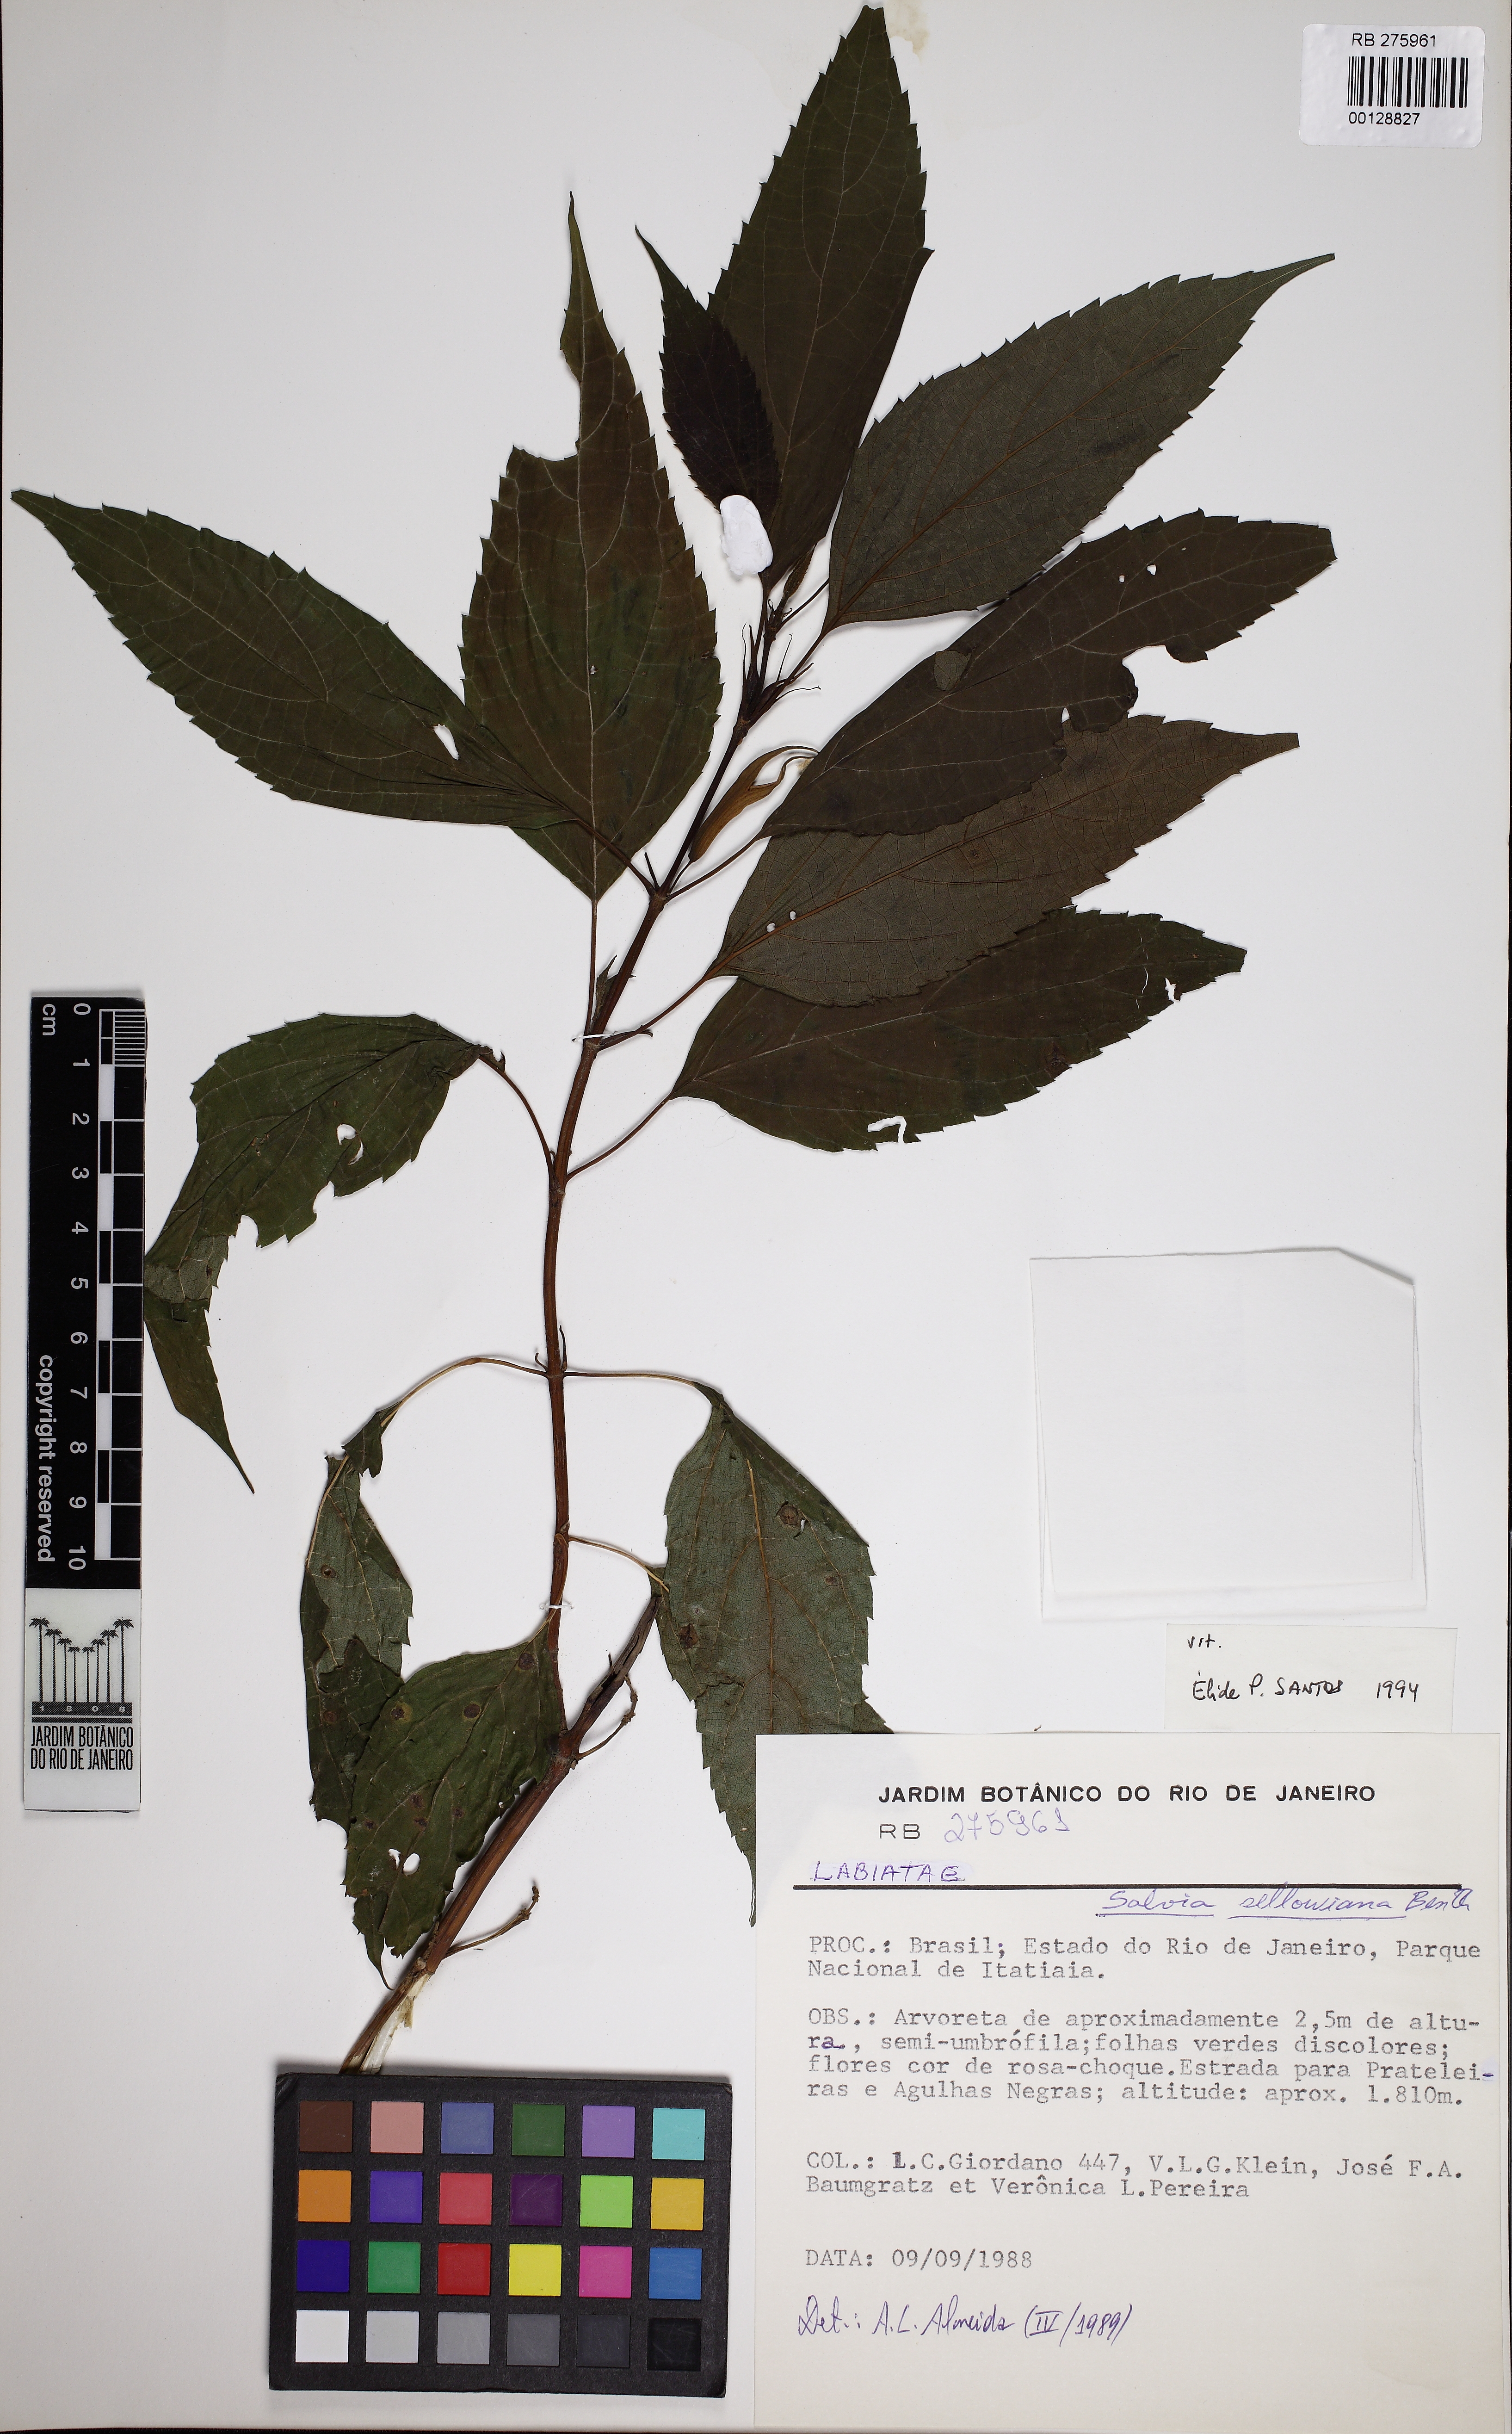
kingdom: Plantae
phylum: Tracheophyta
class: Magnoliopsida
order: Lamiales
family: Lamiaceae
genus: Salvia
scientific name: Salvia sellowiana
